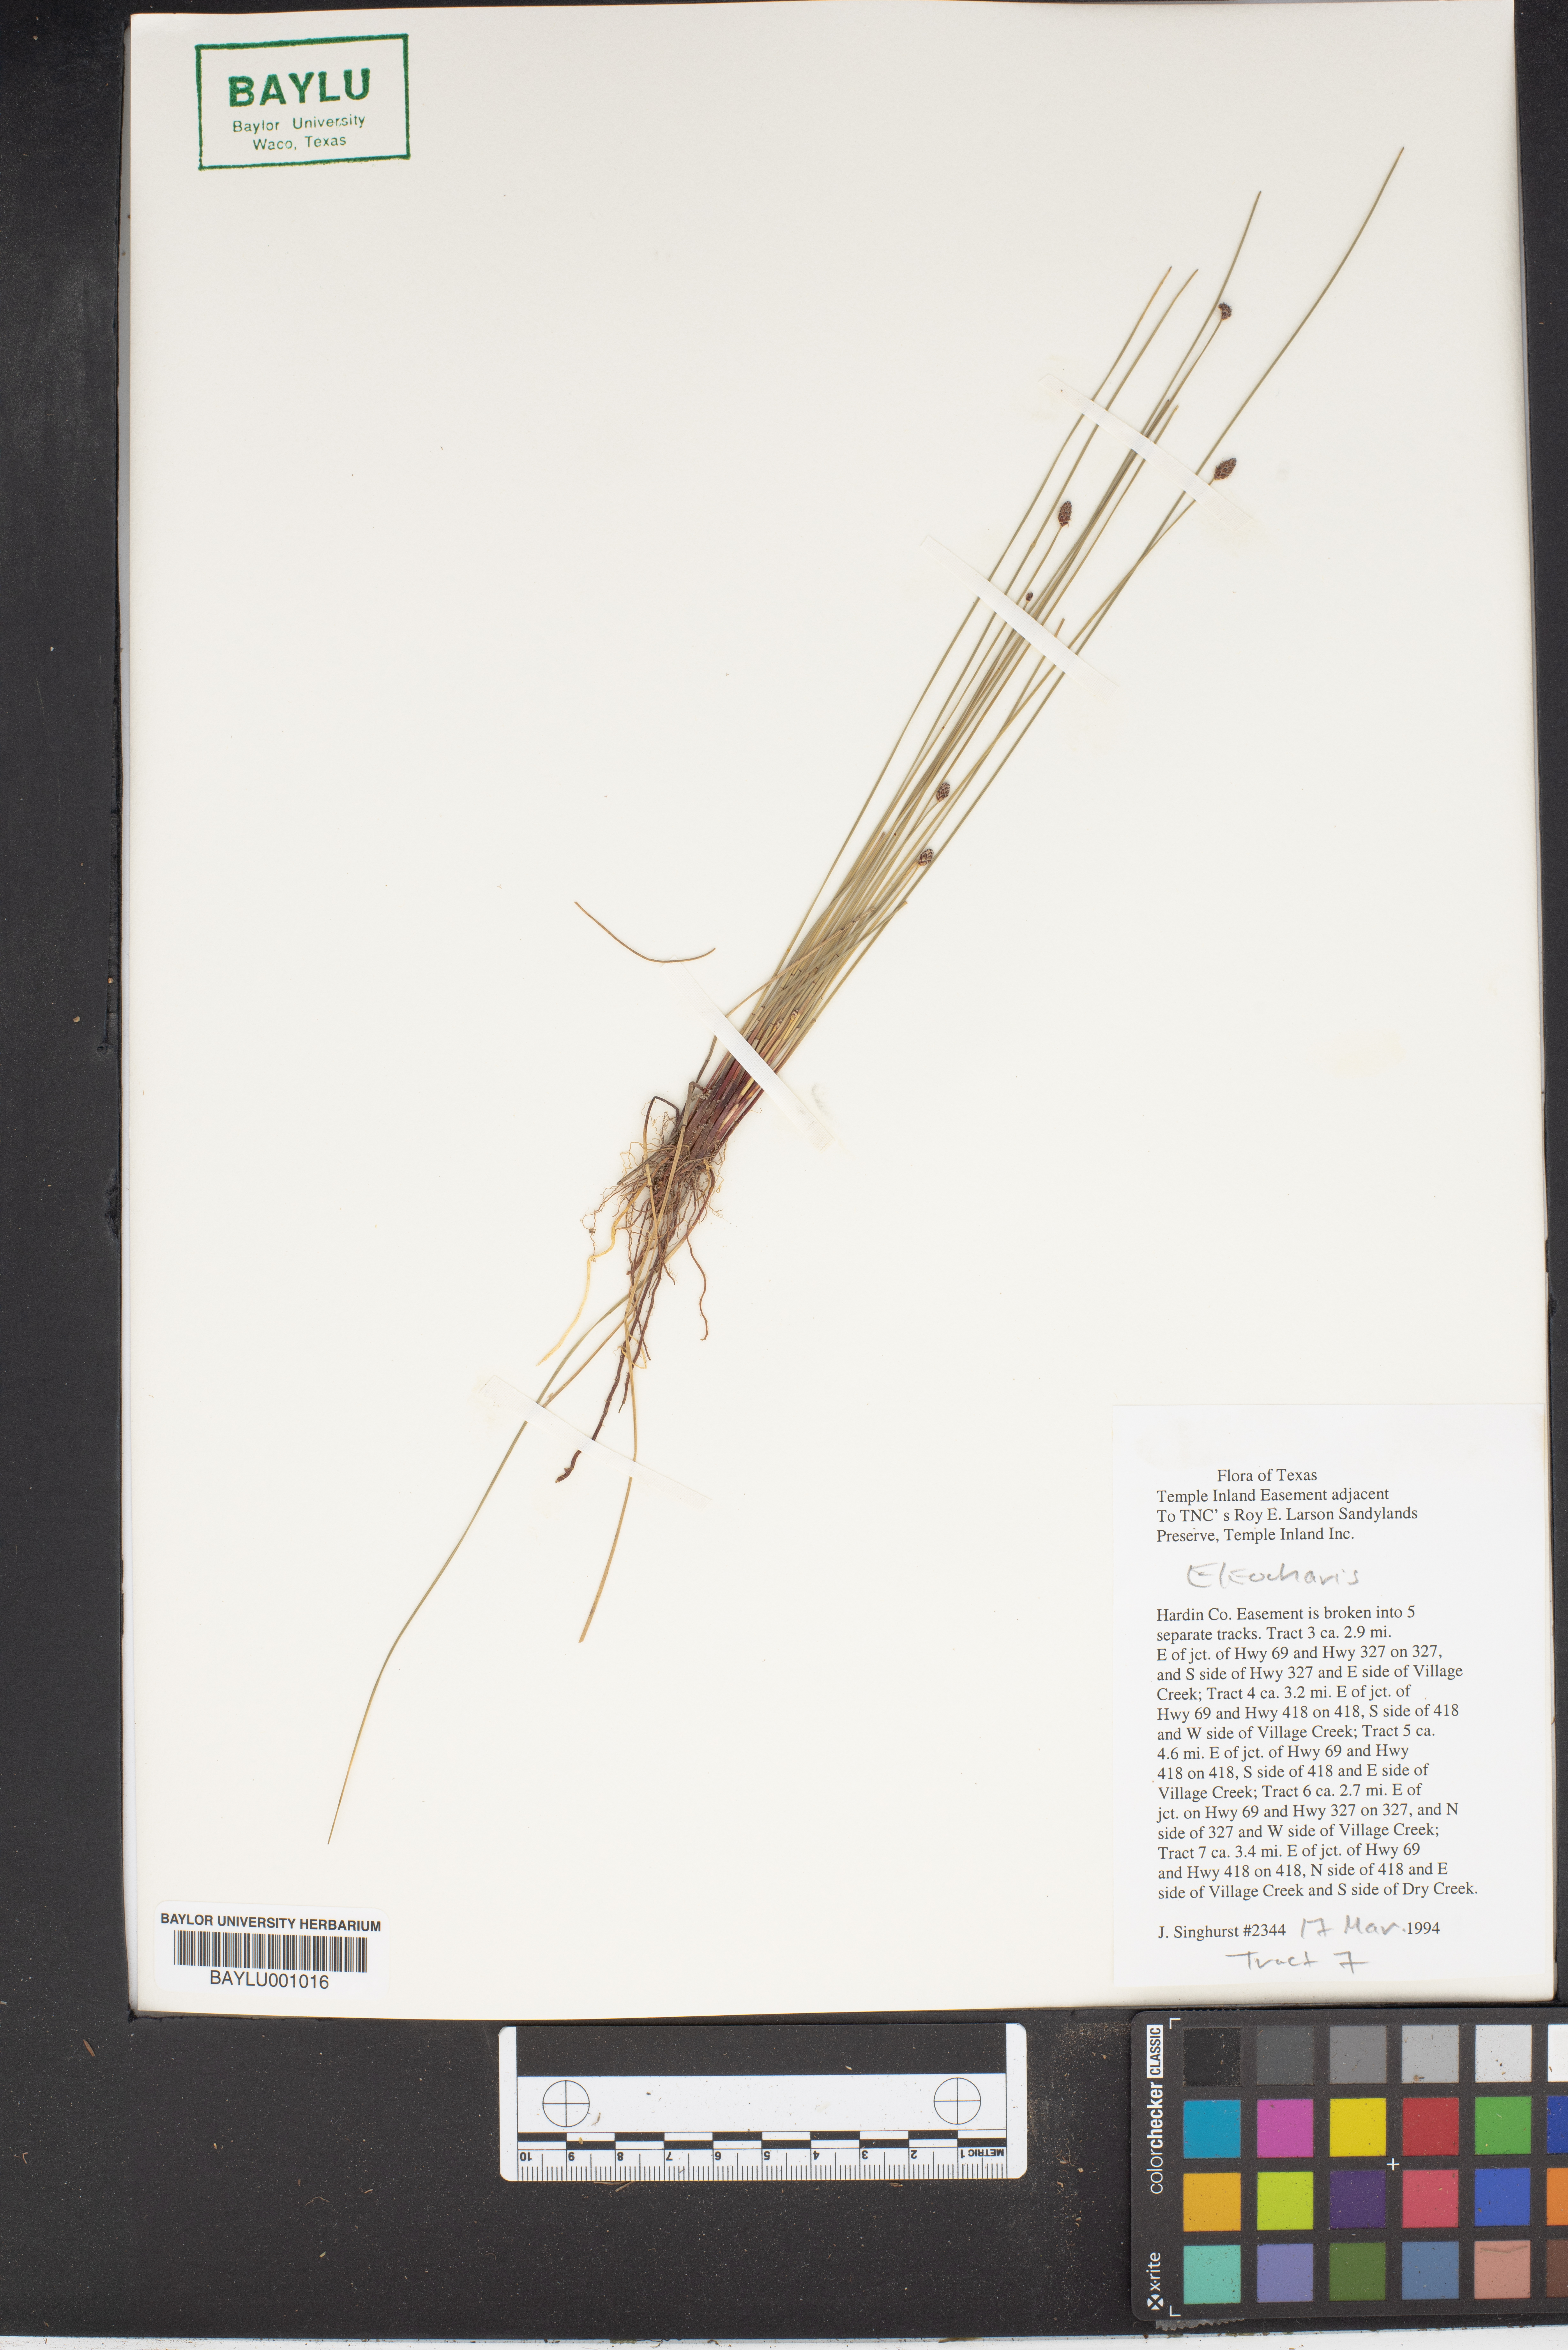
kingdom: Plantae
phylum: Tracheophyta
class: Liliopsida
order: Poales
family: Cyperaceae
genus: Eleocharis
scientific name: Eleocharis
